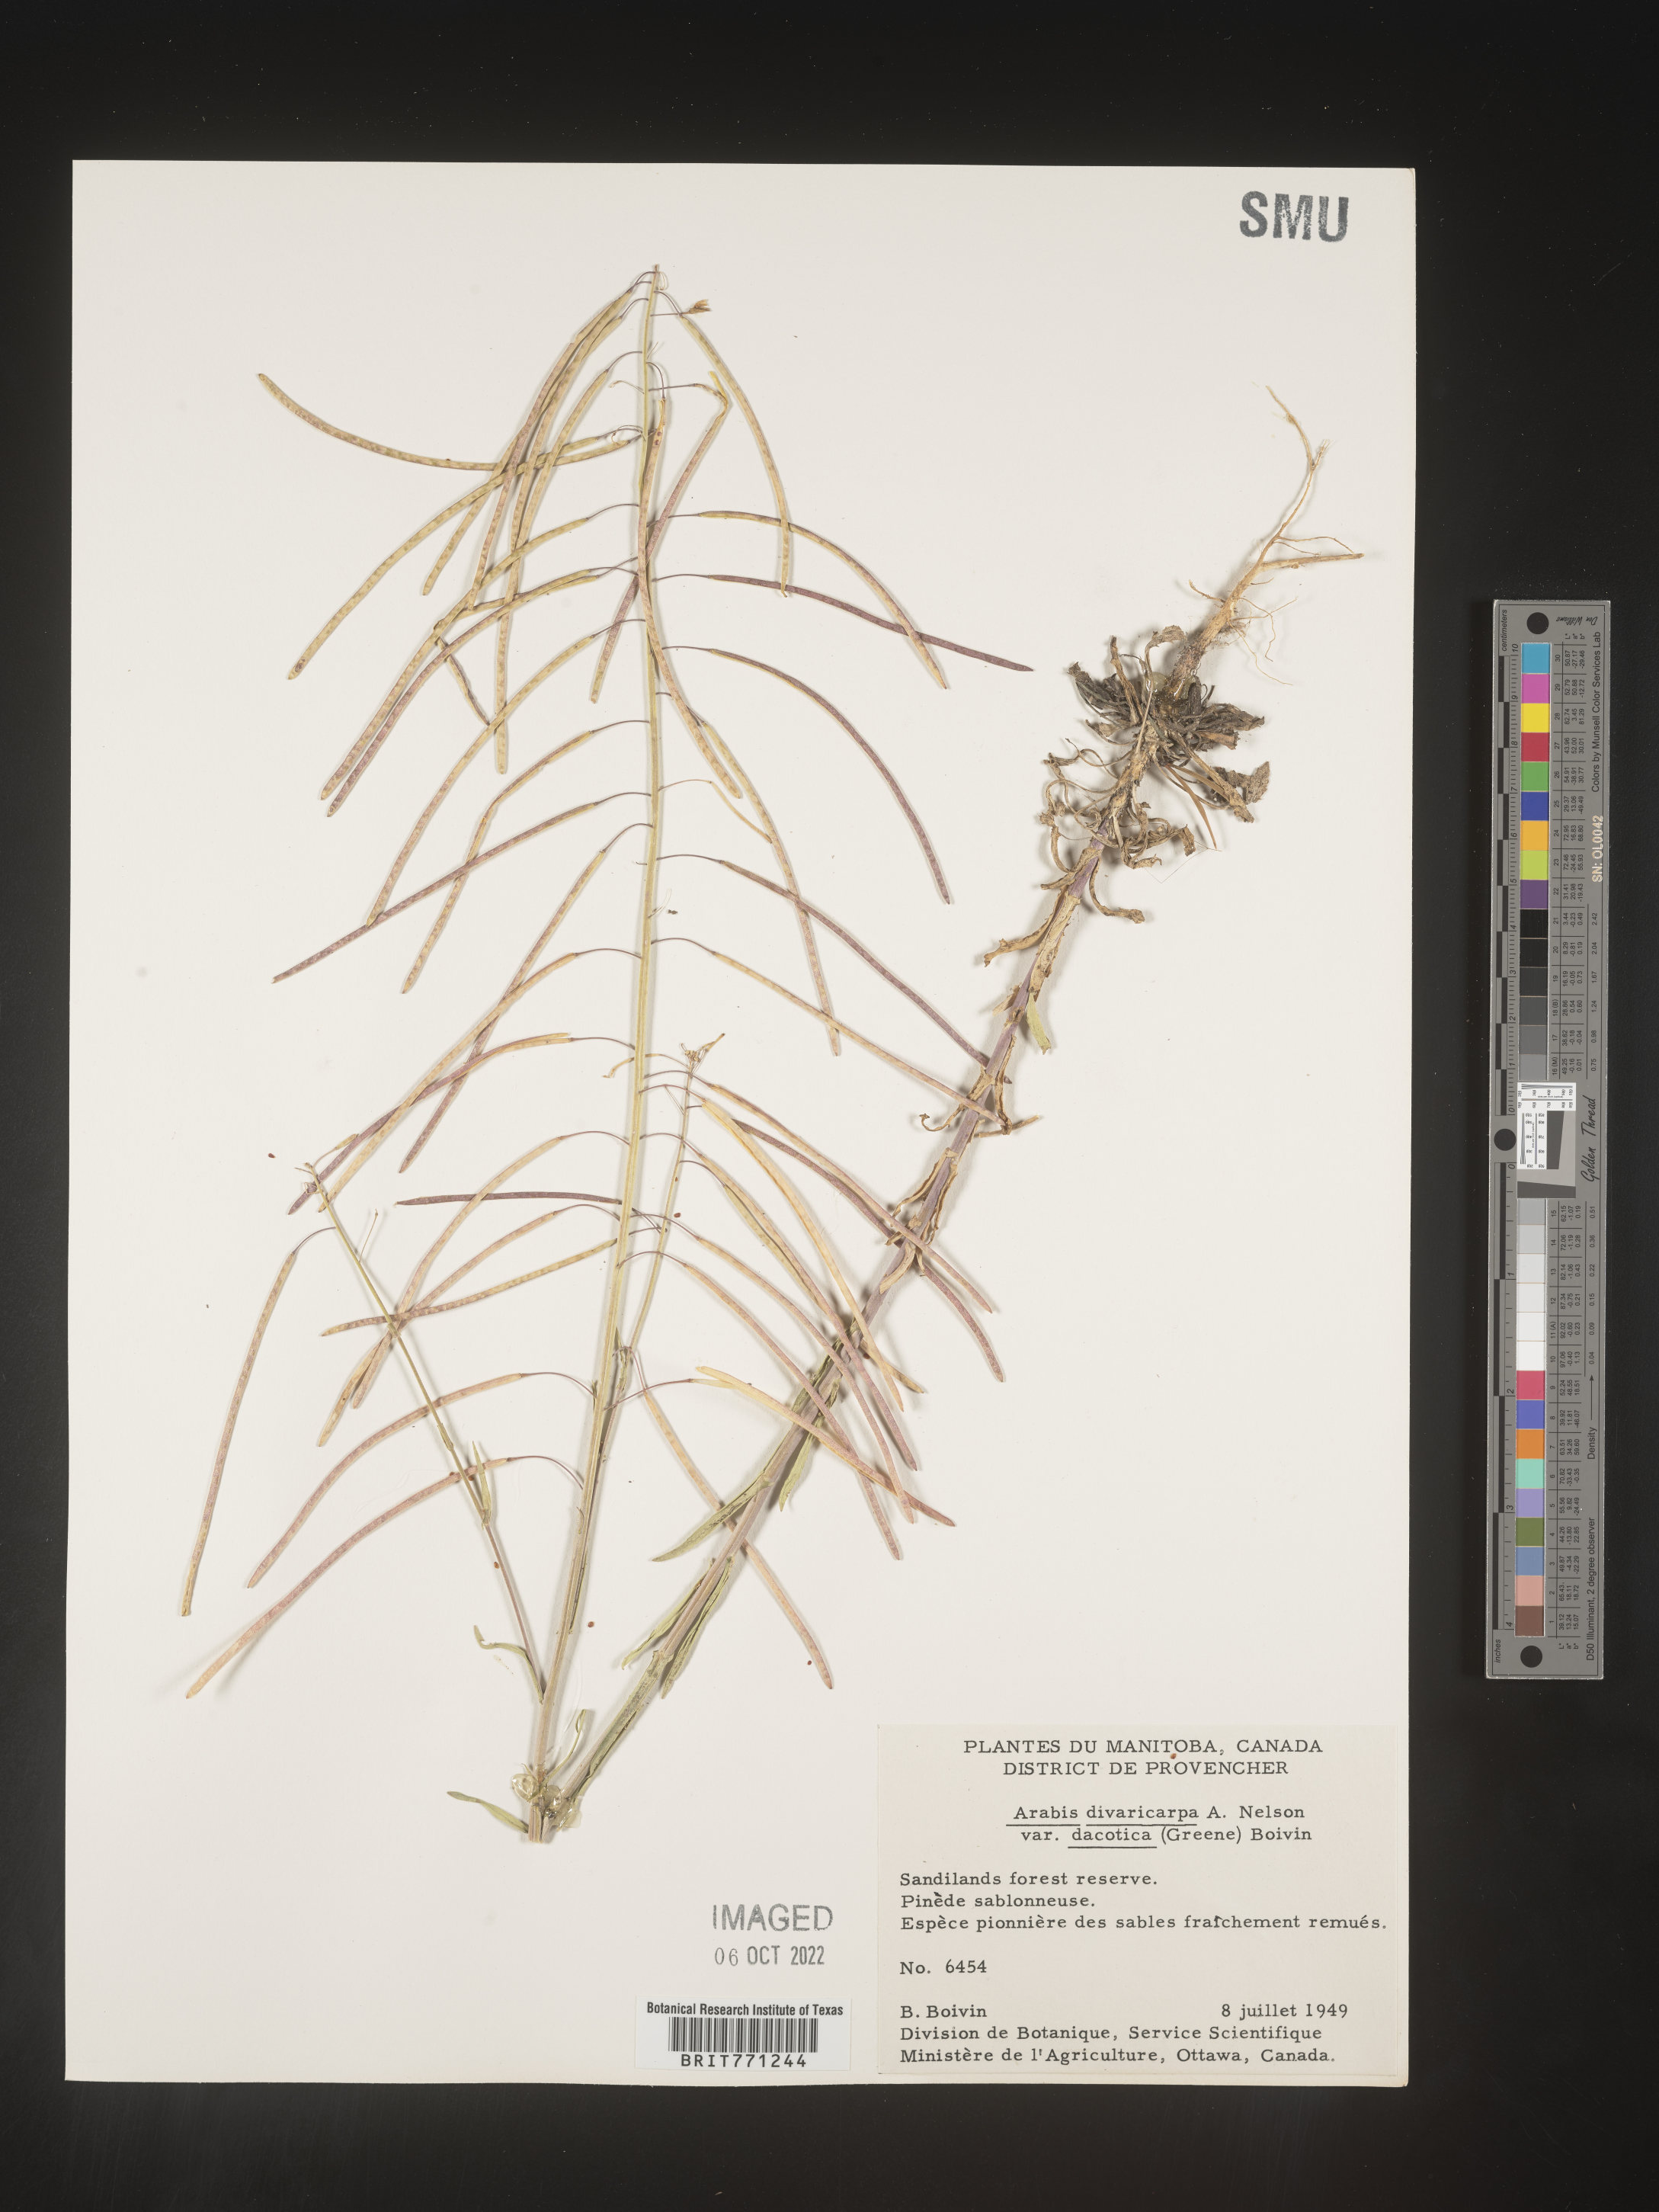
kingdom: Plantae
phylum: Tracheophyta
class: Magnoliopsida
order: Brassicales
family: Brassicaceae
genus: Boechera
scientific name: Boechera divaricarpa
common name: Divaricate rockcress
